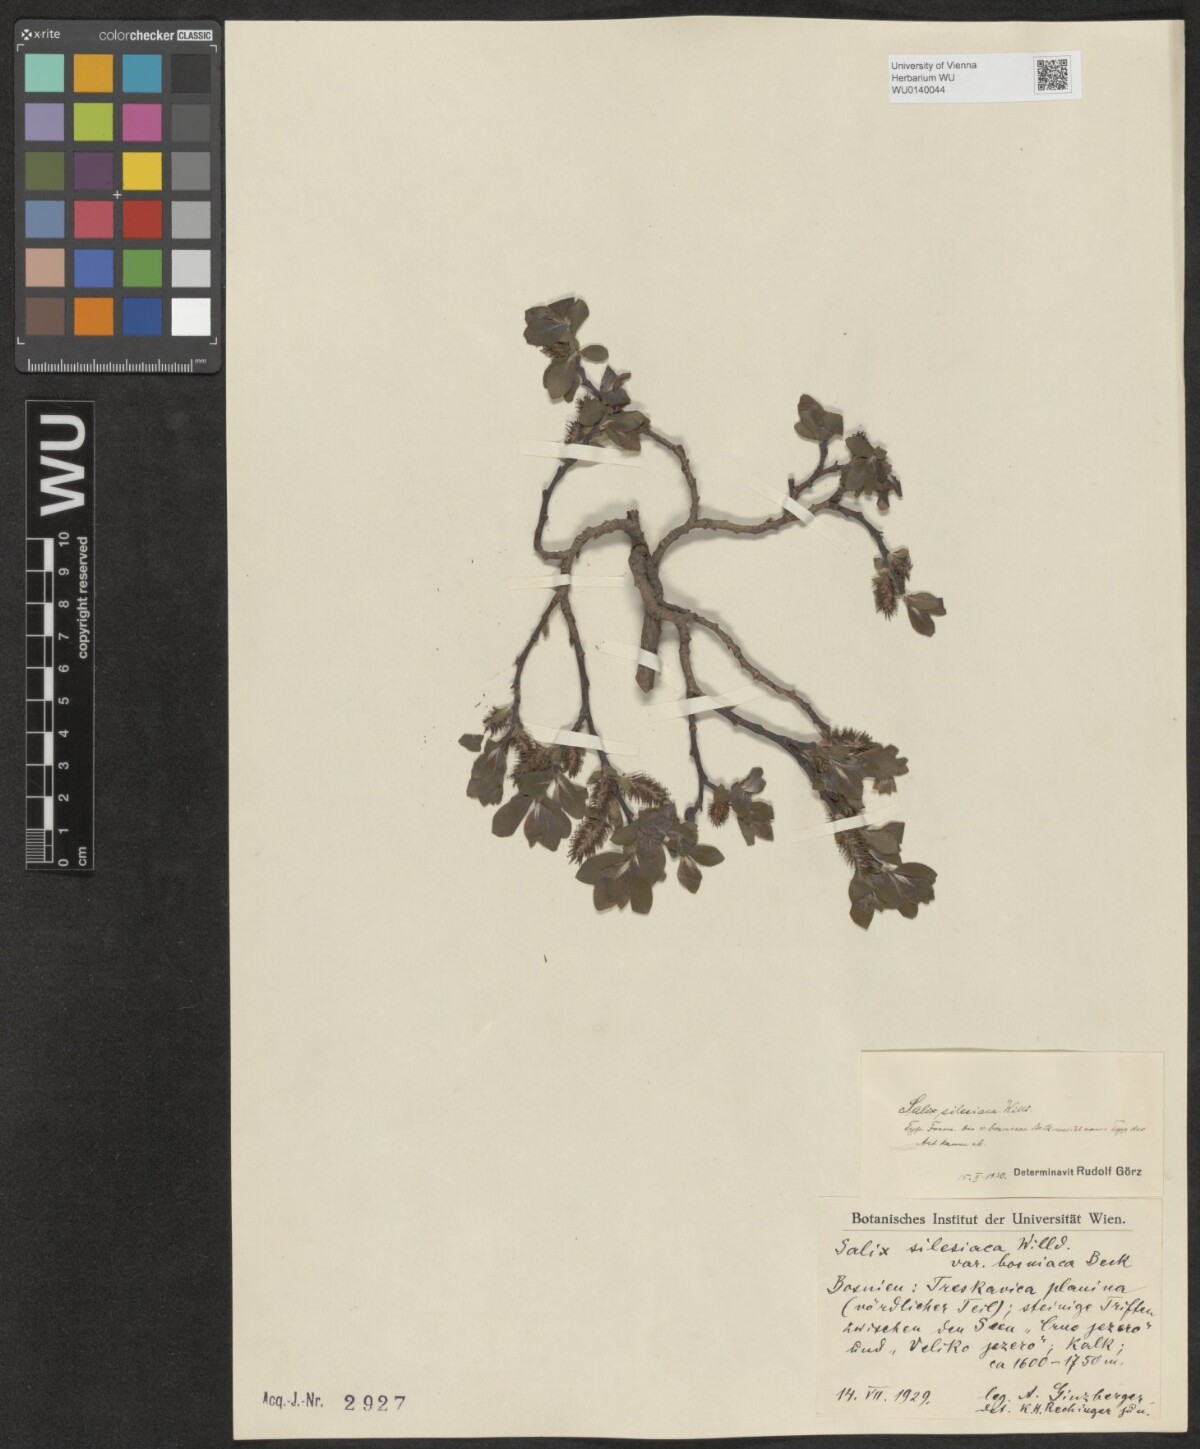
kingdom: Plantae
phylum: Tracheophyta
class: Magnoliopsida
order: Malpighiales
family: Salicaceae
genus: Salix
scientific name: Salix silesiaca
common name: Silesian willow
